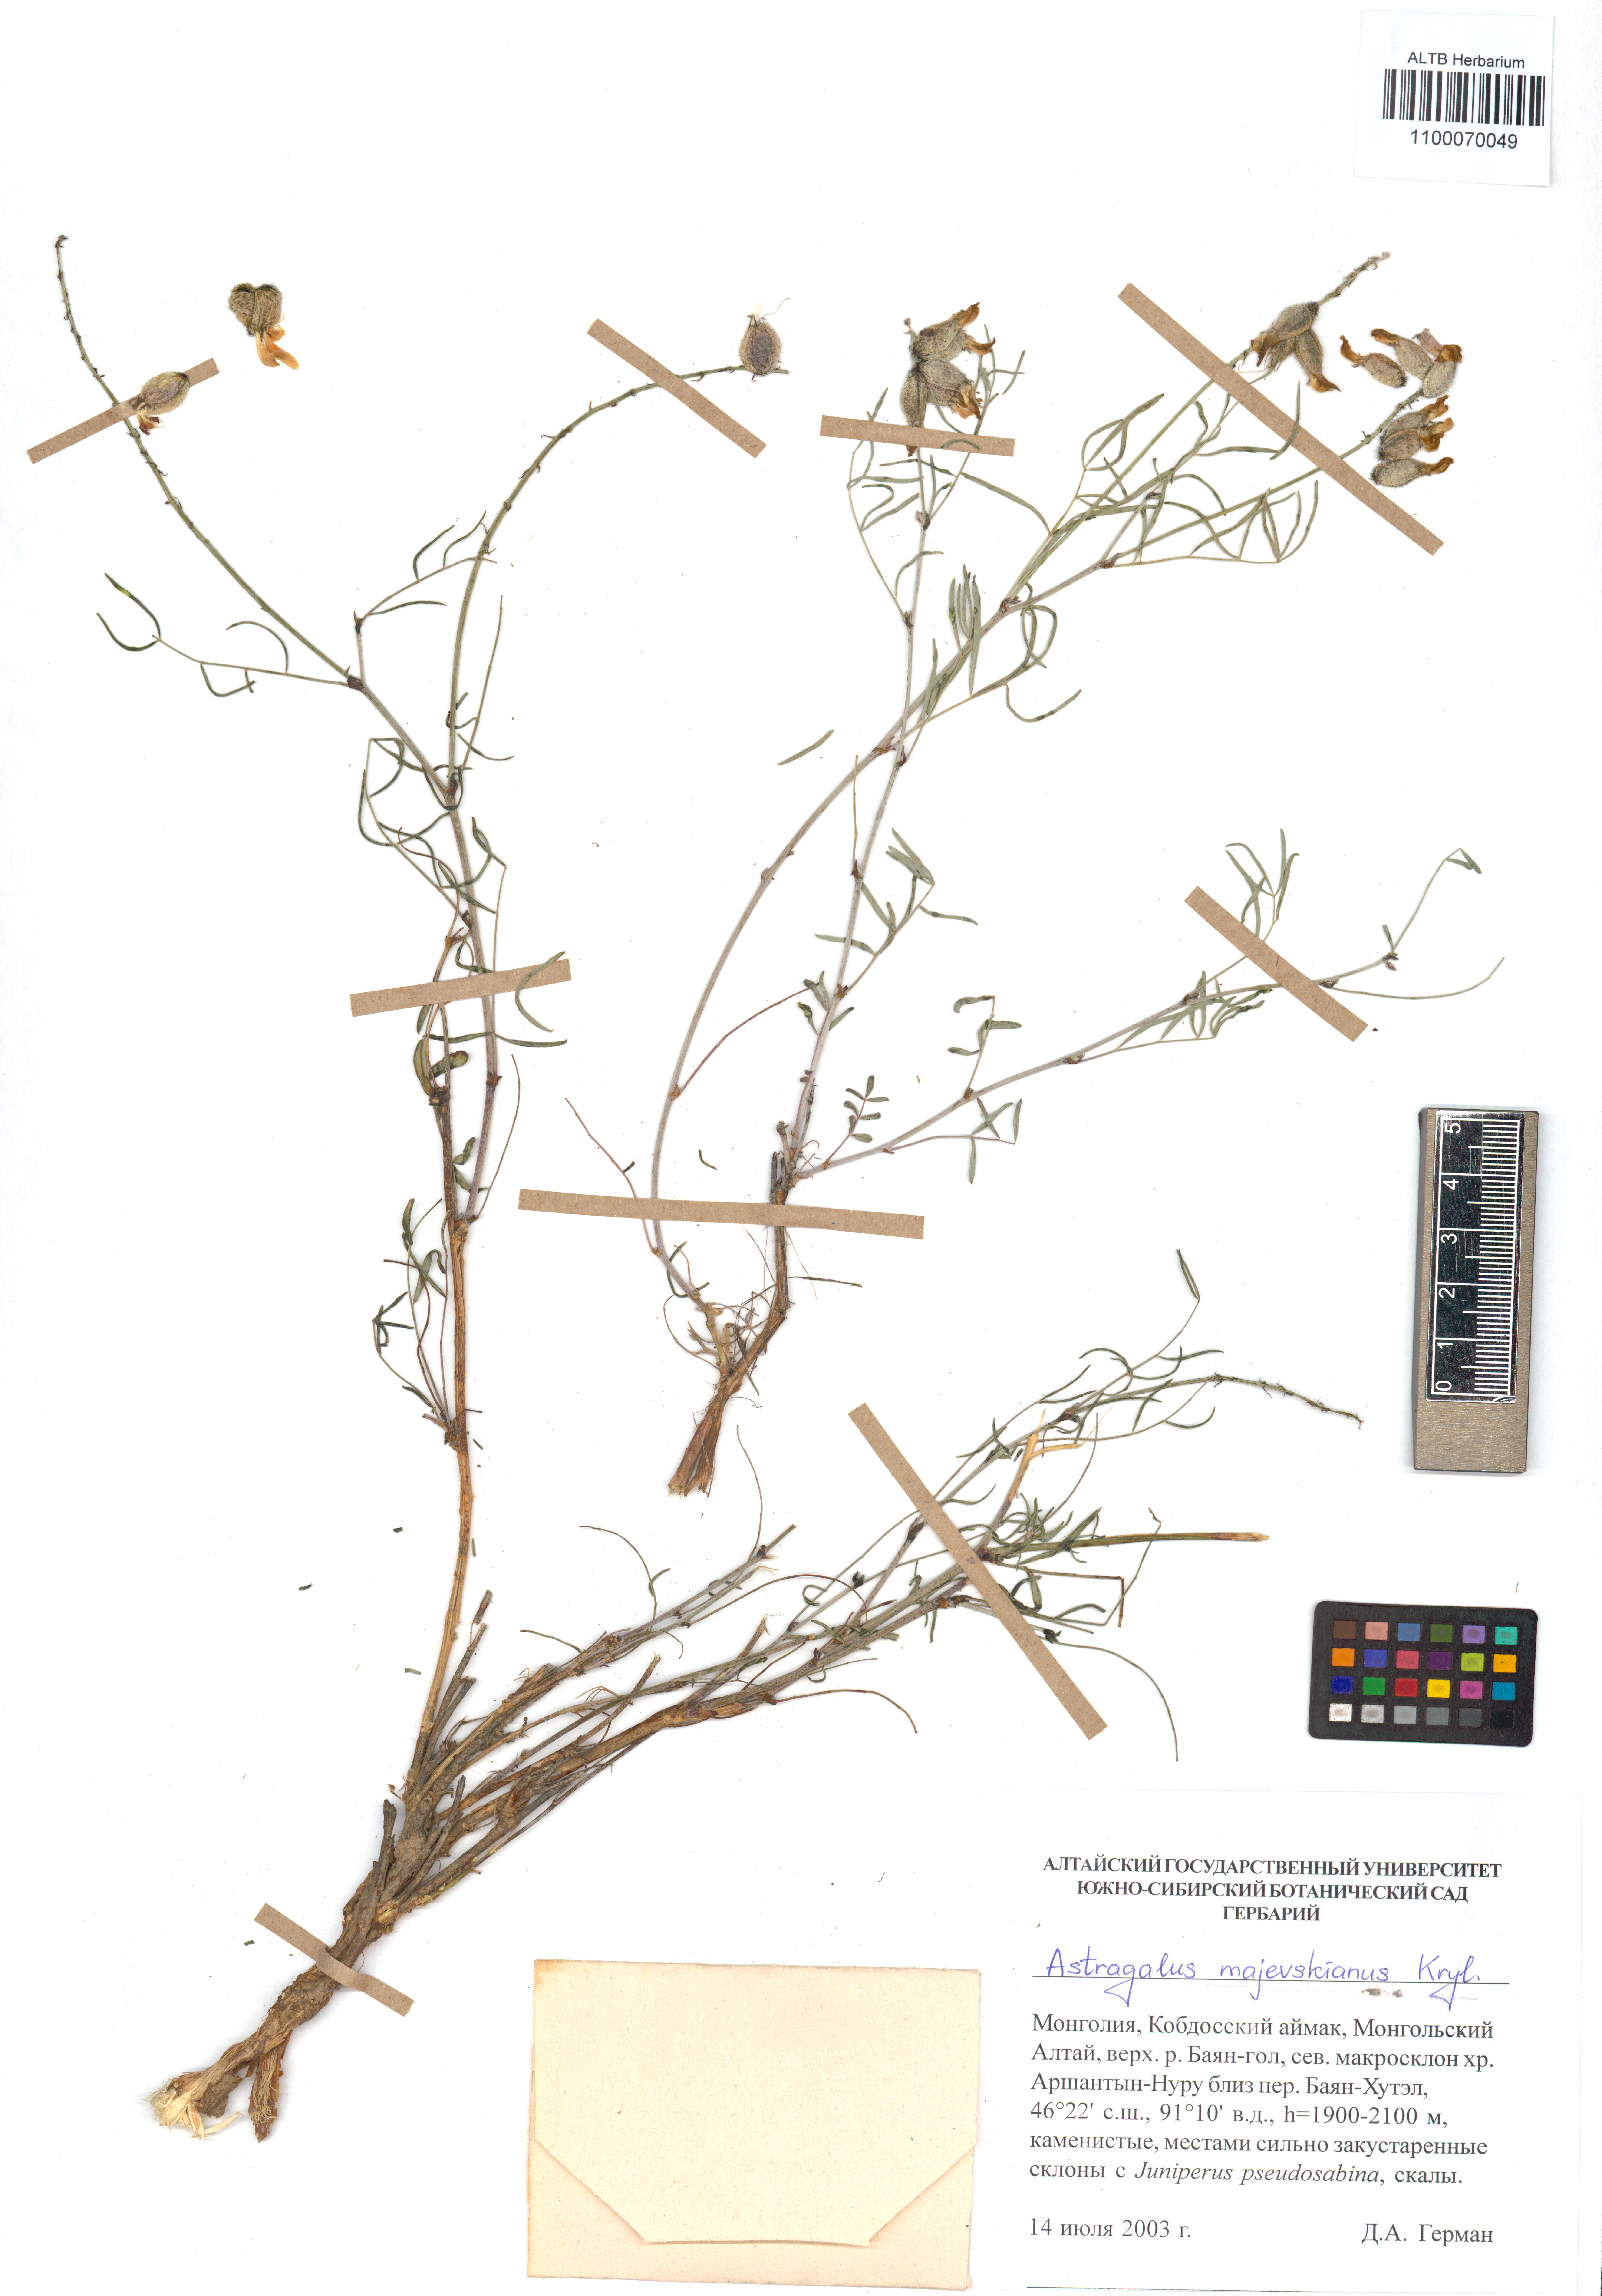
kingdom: Plantae
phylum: Tracheophyta
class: Magnoliopsida
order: Fabales
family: Fabaceae
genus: Astragalus
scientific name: Astragalus majevskianus
